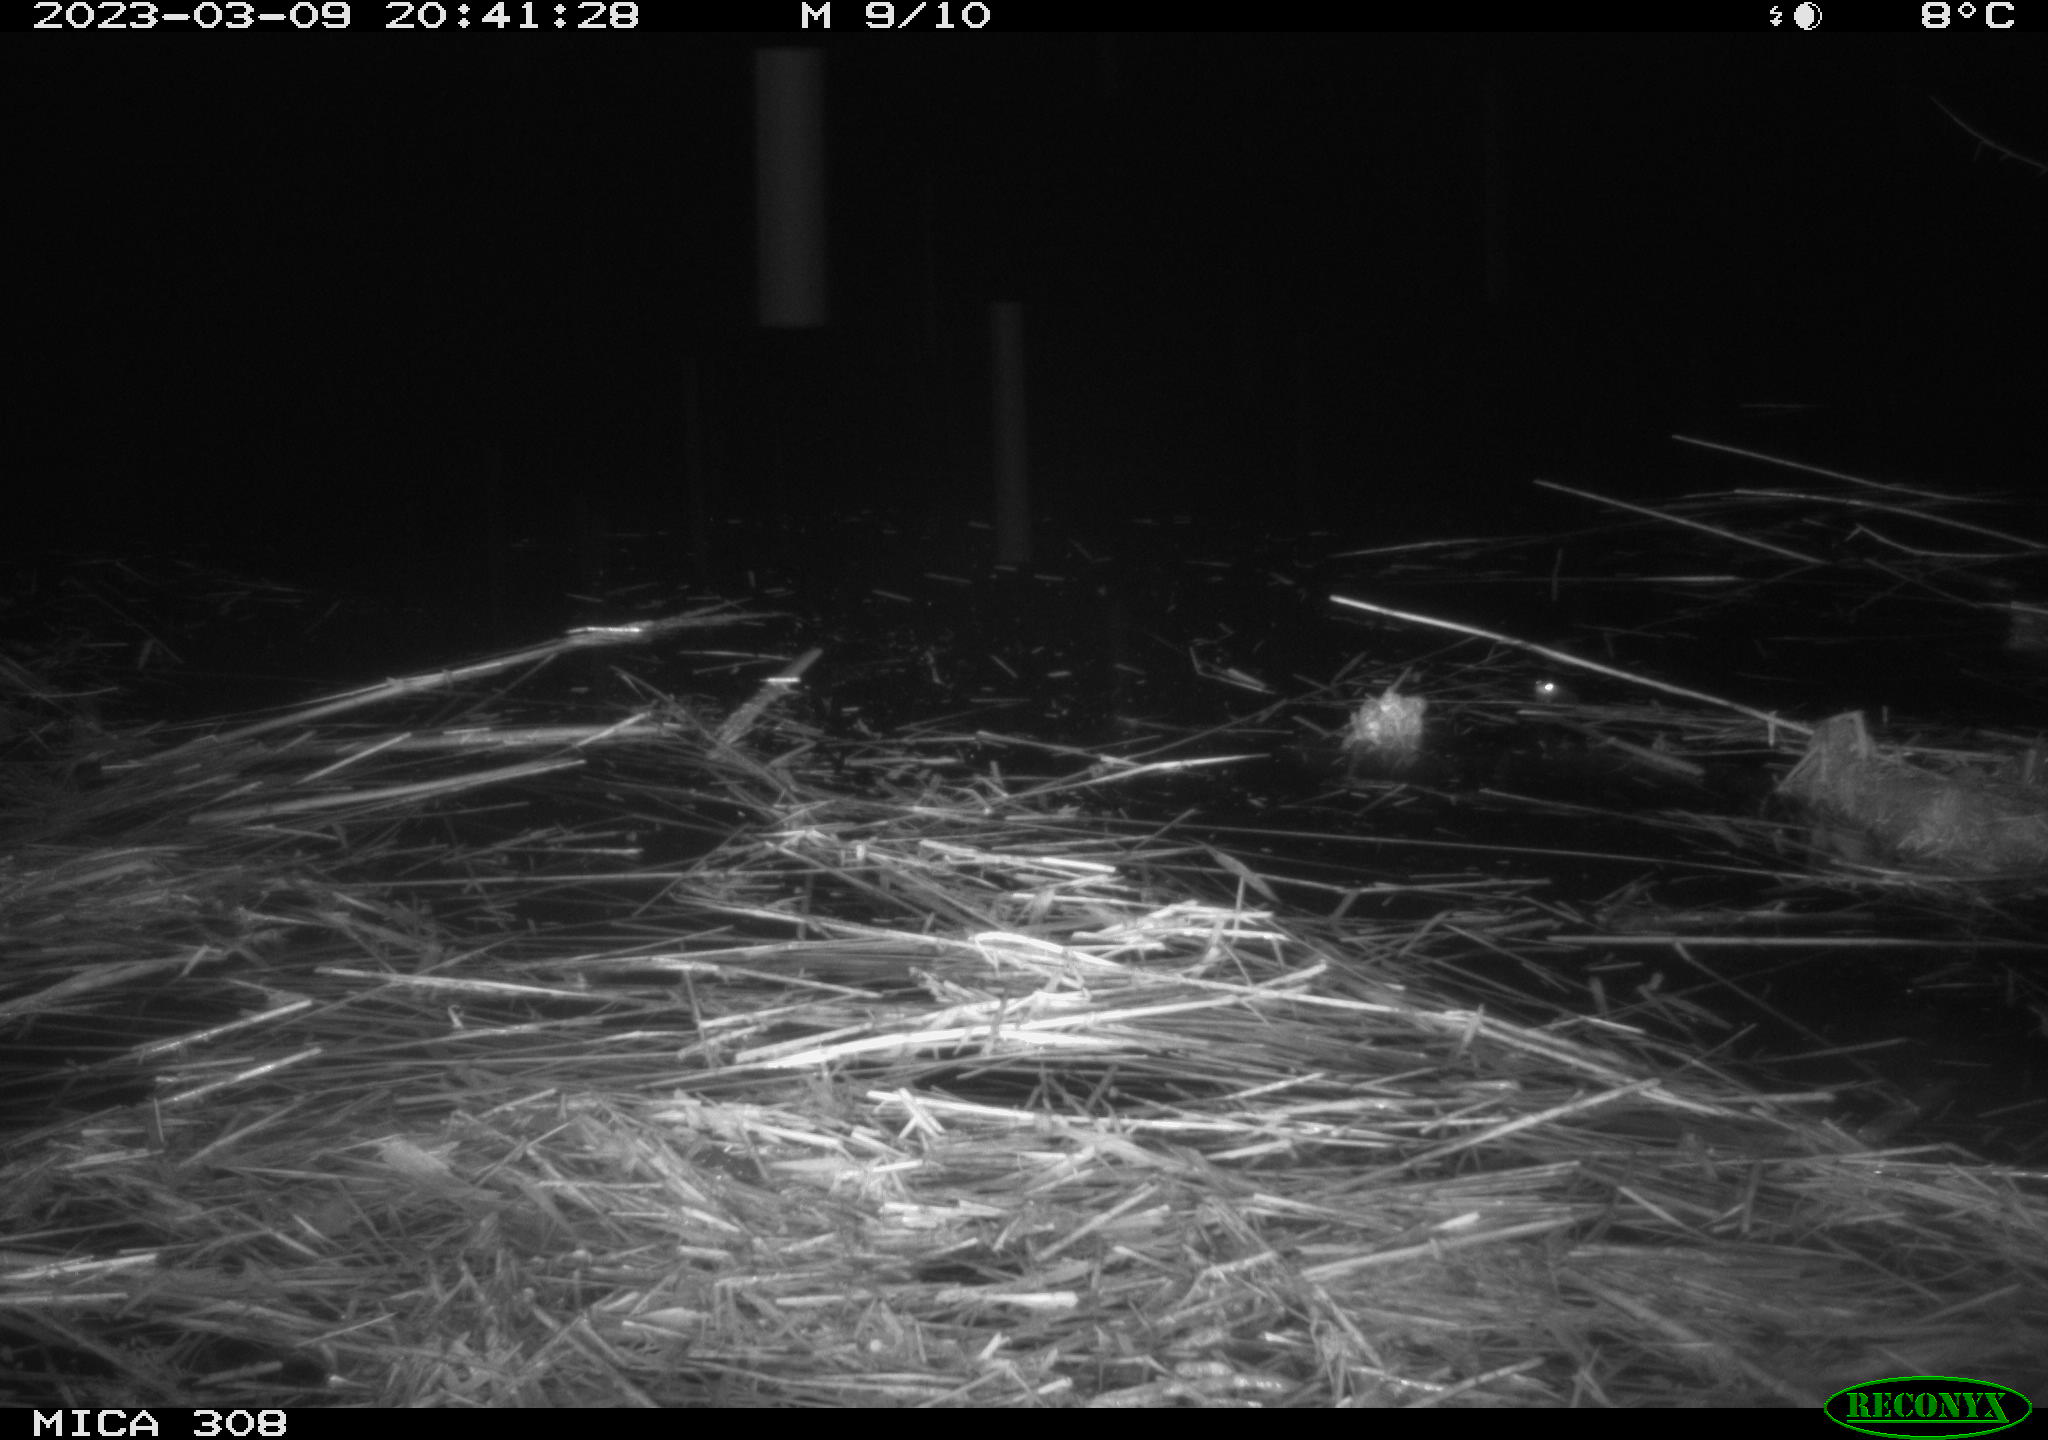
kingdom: Animalia
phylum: Chordata
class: Mammalia
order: Rodentia
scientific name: Rodentia
